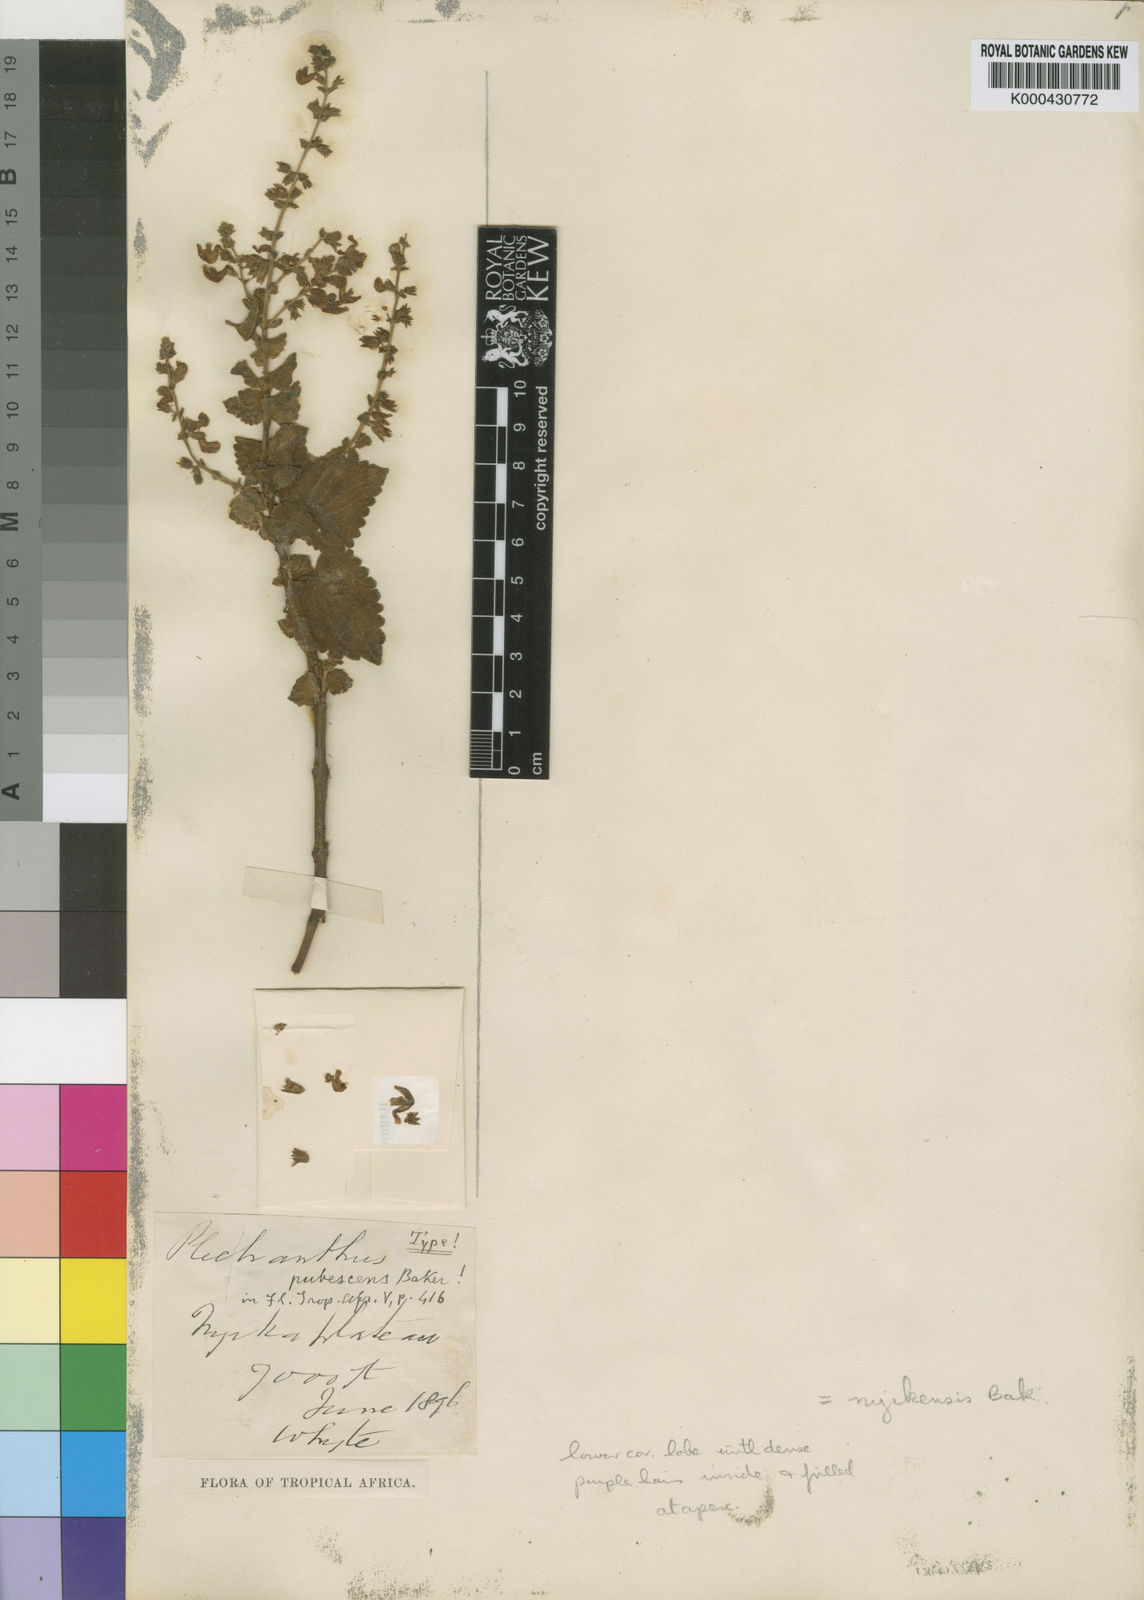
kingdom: Plantae
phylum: Tracheophyta
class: Magnoliopsida
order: Lamiales
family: Lamiaceae
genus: Equilabium
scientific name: Equilabium pubescens
